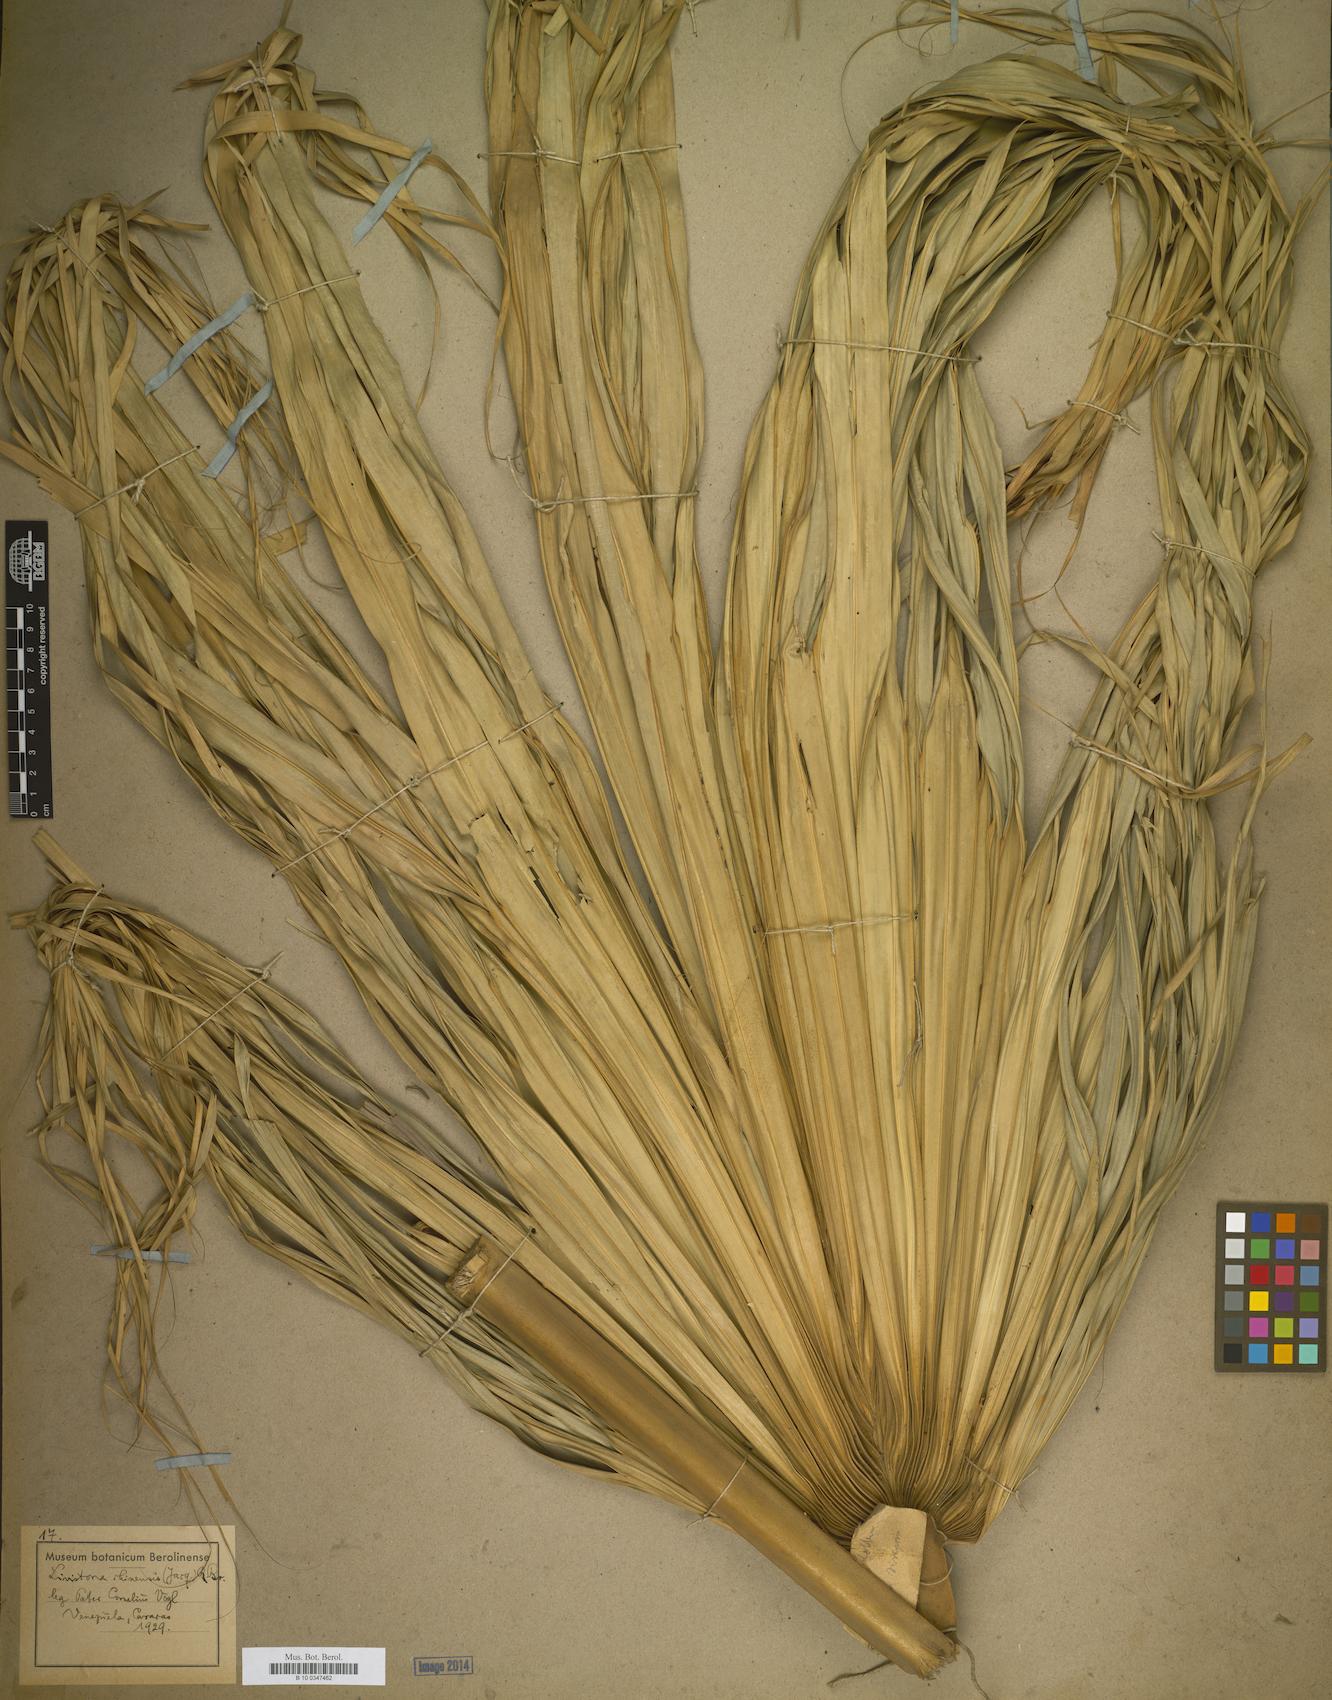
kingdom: Plantae
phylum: Tracheophyta
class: Liliopsida
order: Arecales
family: Arecaceae
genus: Livistona
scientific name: Livistona
